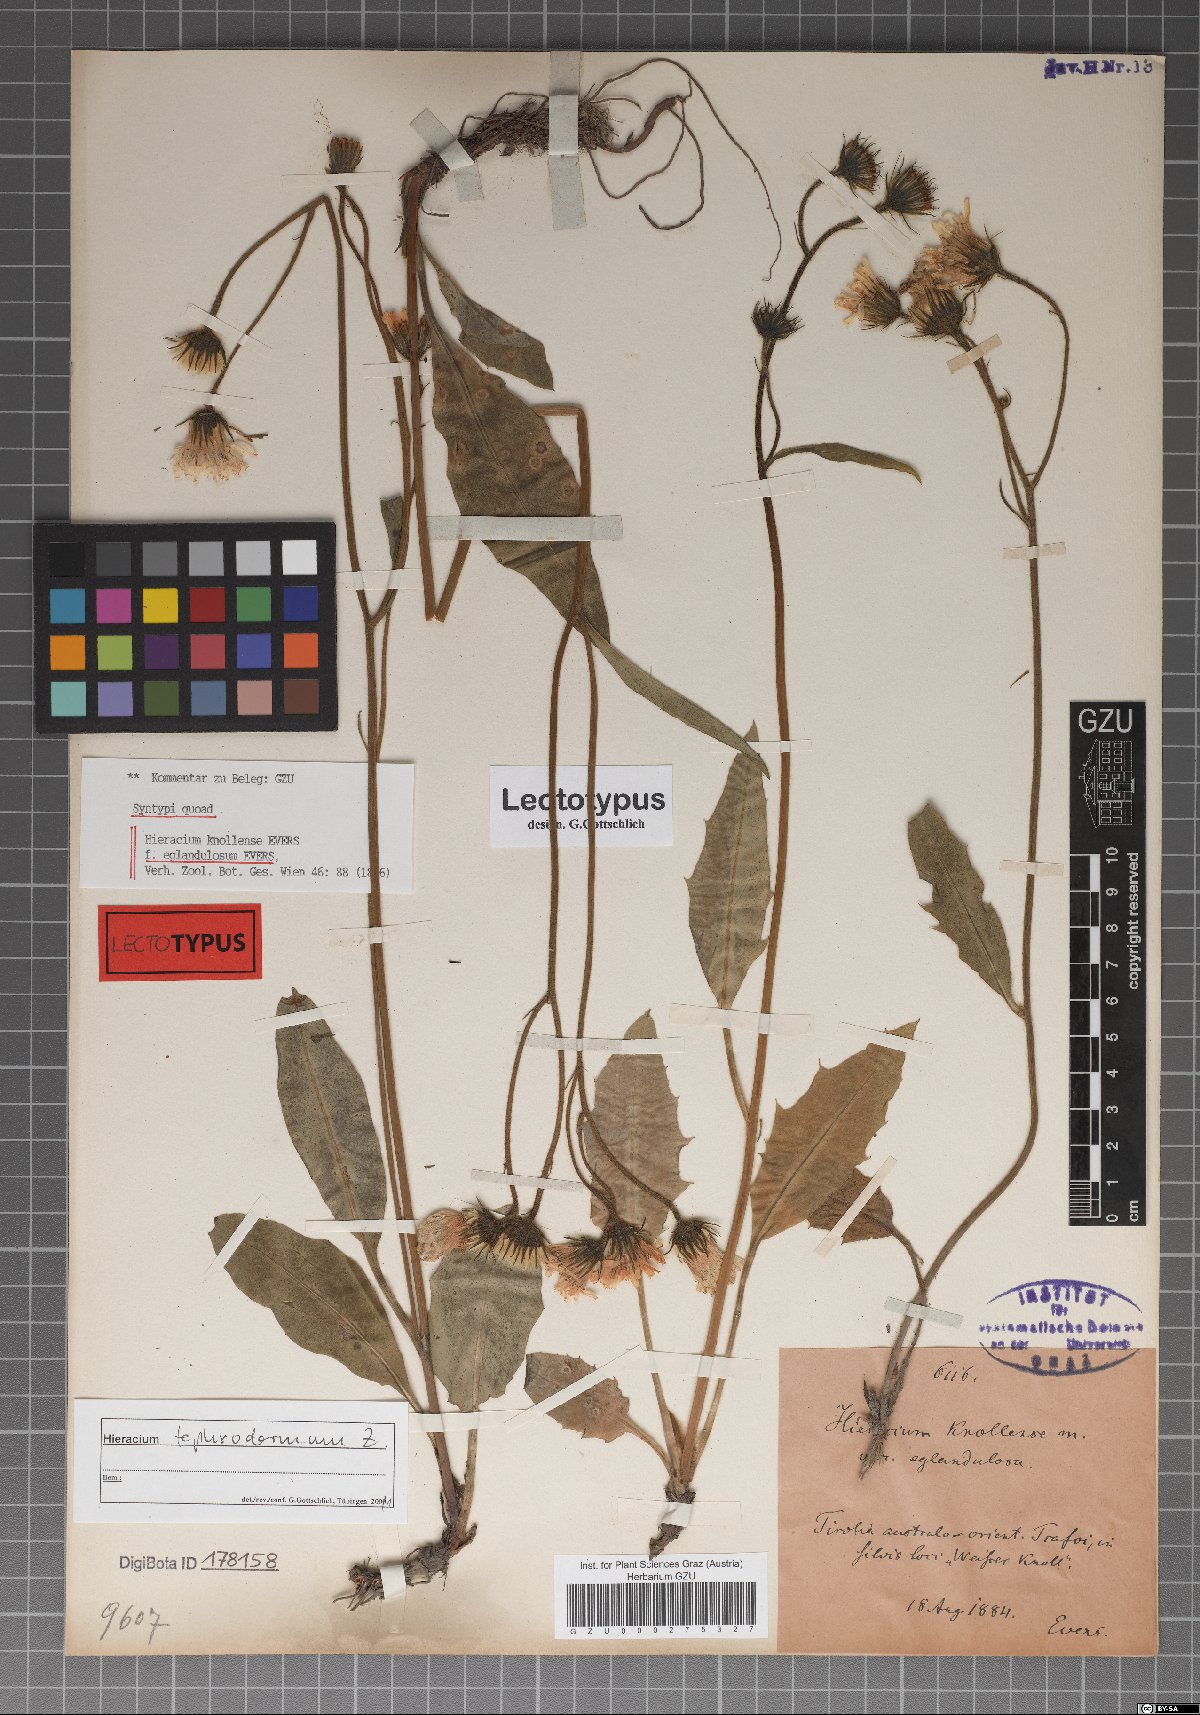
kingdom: Plantae
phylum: Tracheophyta
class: Magnoliopsida
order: Asterales
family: Asteraceae
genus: Hieracium
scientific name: Hieracium knollense
